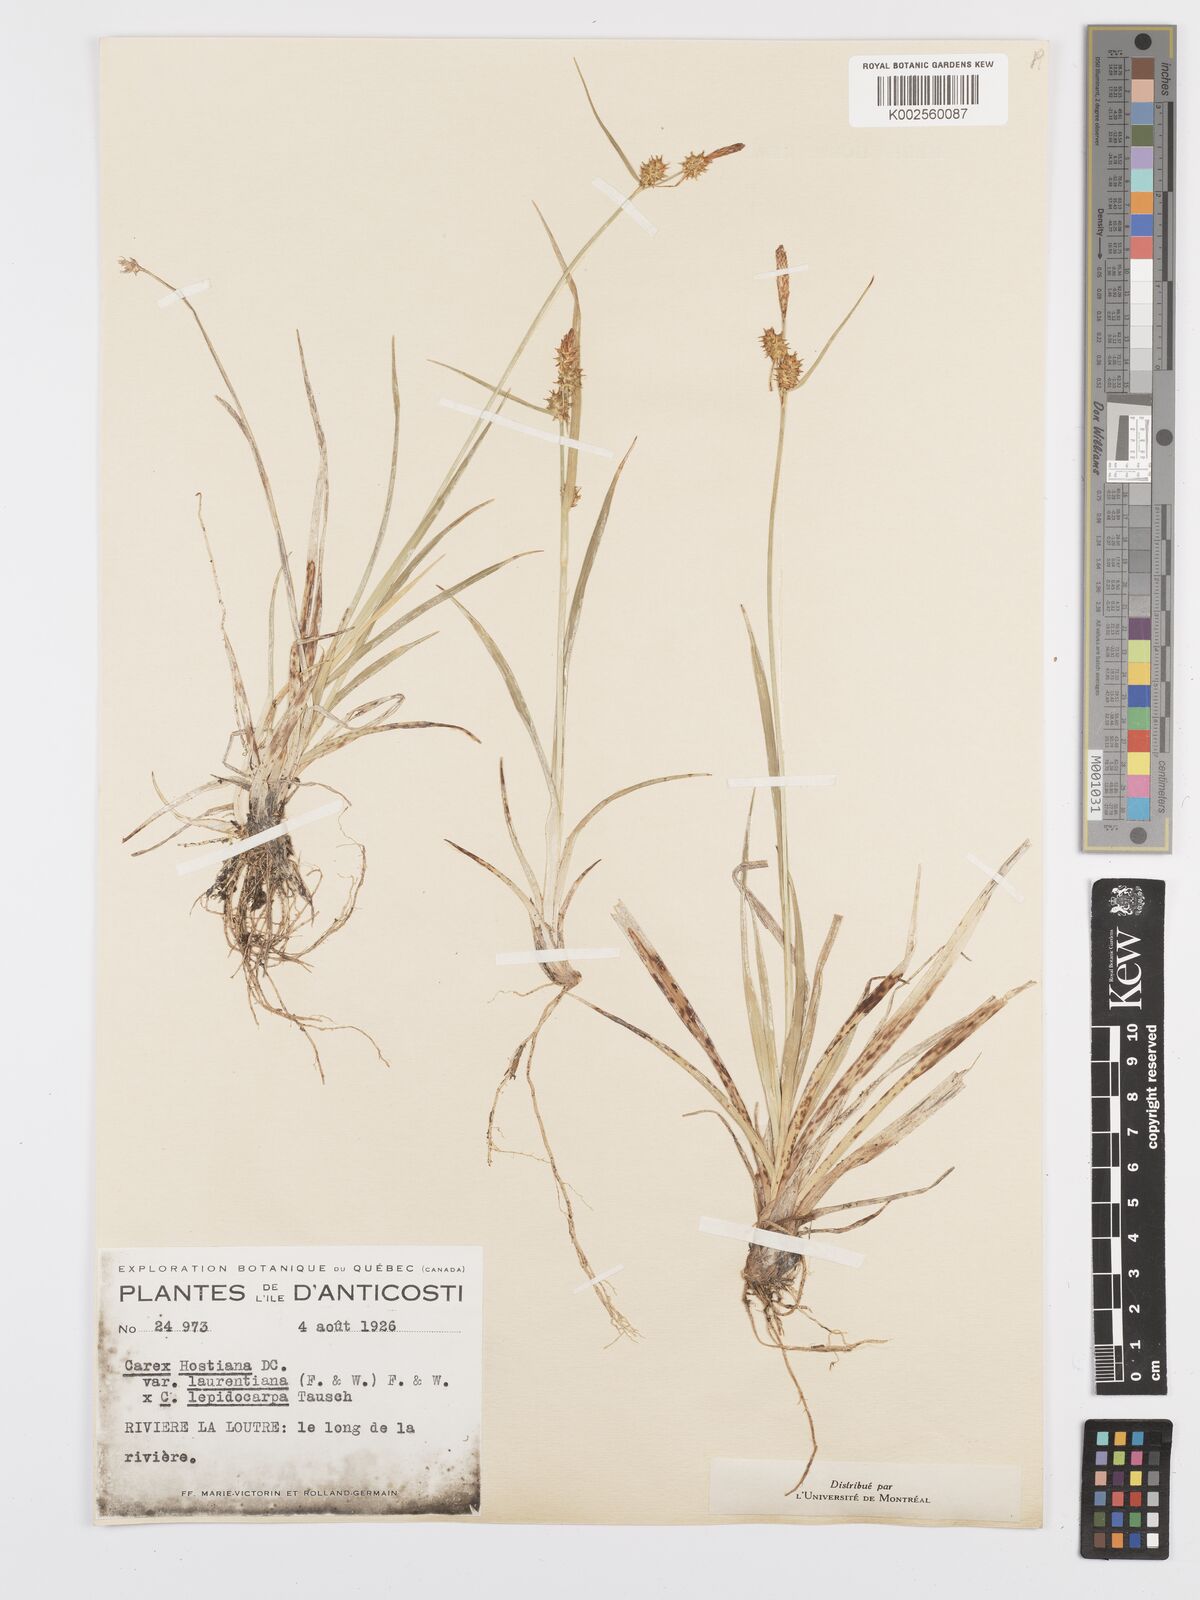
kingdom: Plantae
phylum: Tracheophyta
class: Liliopsida
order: Poales
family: Cyperaceae
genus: Carex
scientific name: Carex hostiana
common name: Tawny sedge
